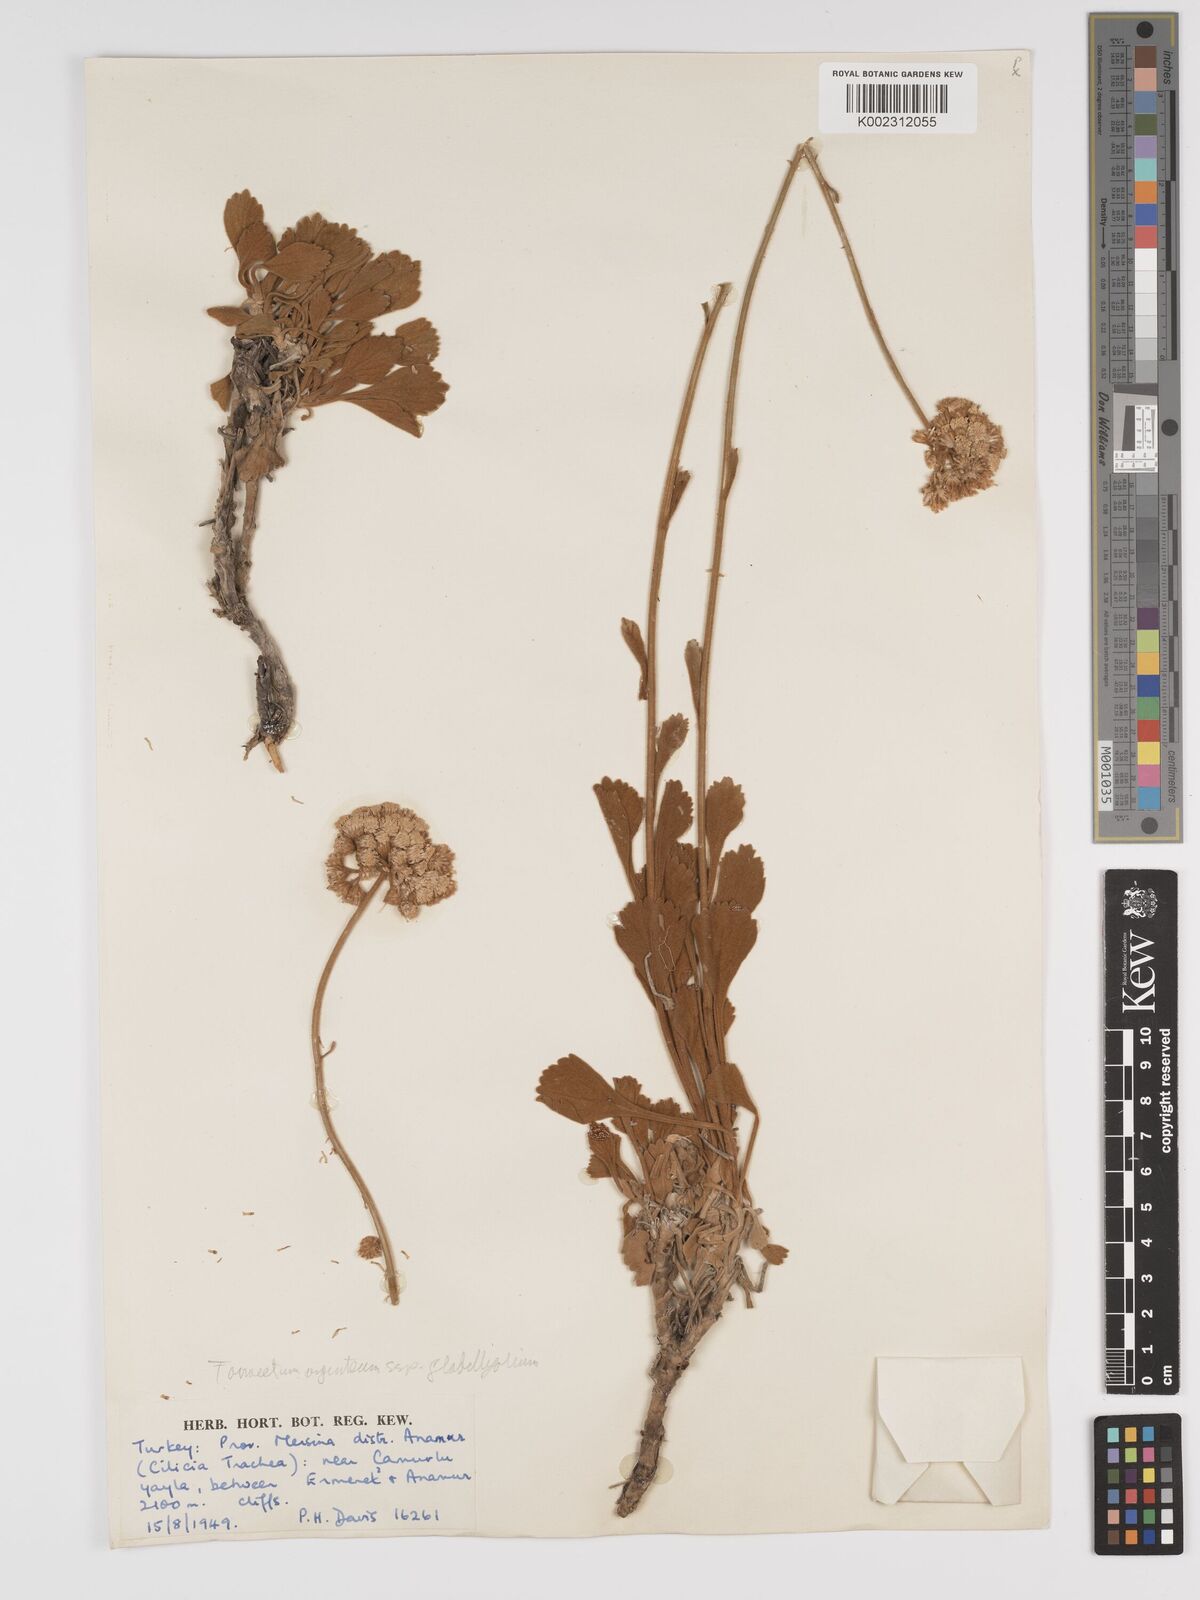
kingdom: Plantae
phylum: Tracheophyta
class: Magnoliopsida
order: Asterales
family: Asteraceae
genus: Tanacetum
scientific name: Tanacetum argenteum
